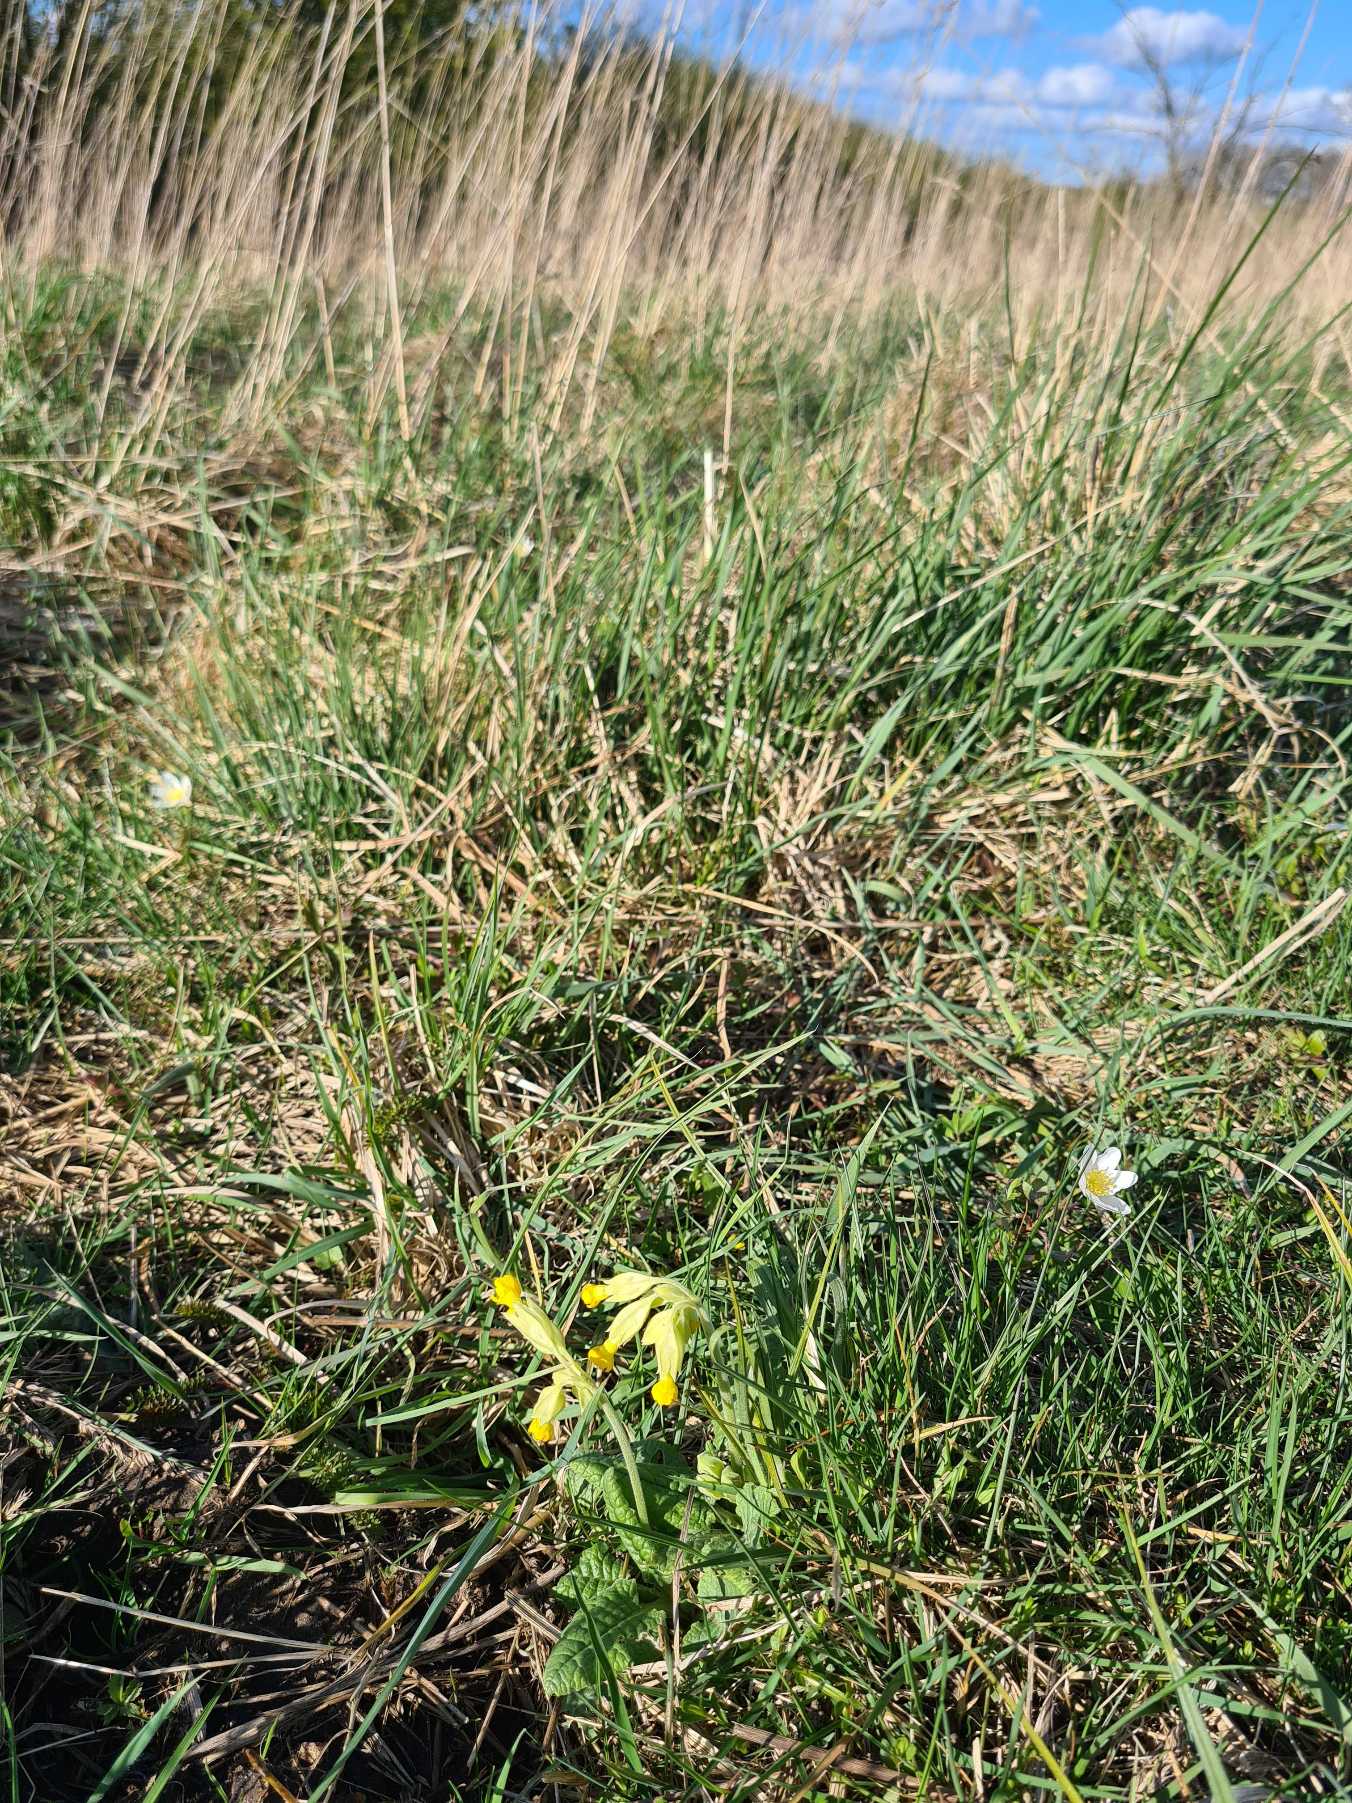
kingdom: Plantae
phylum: Tracheophyta
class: Magnoliopsida
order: Ericales
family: Primulaceae
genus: Primula
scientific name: Primula veris
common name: Hulkravet kodriver
